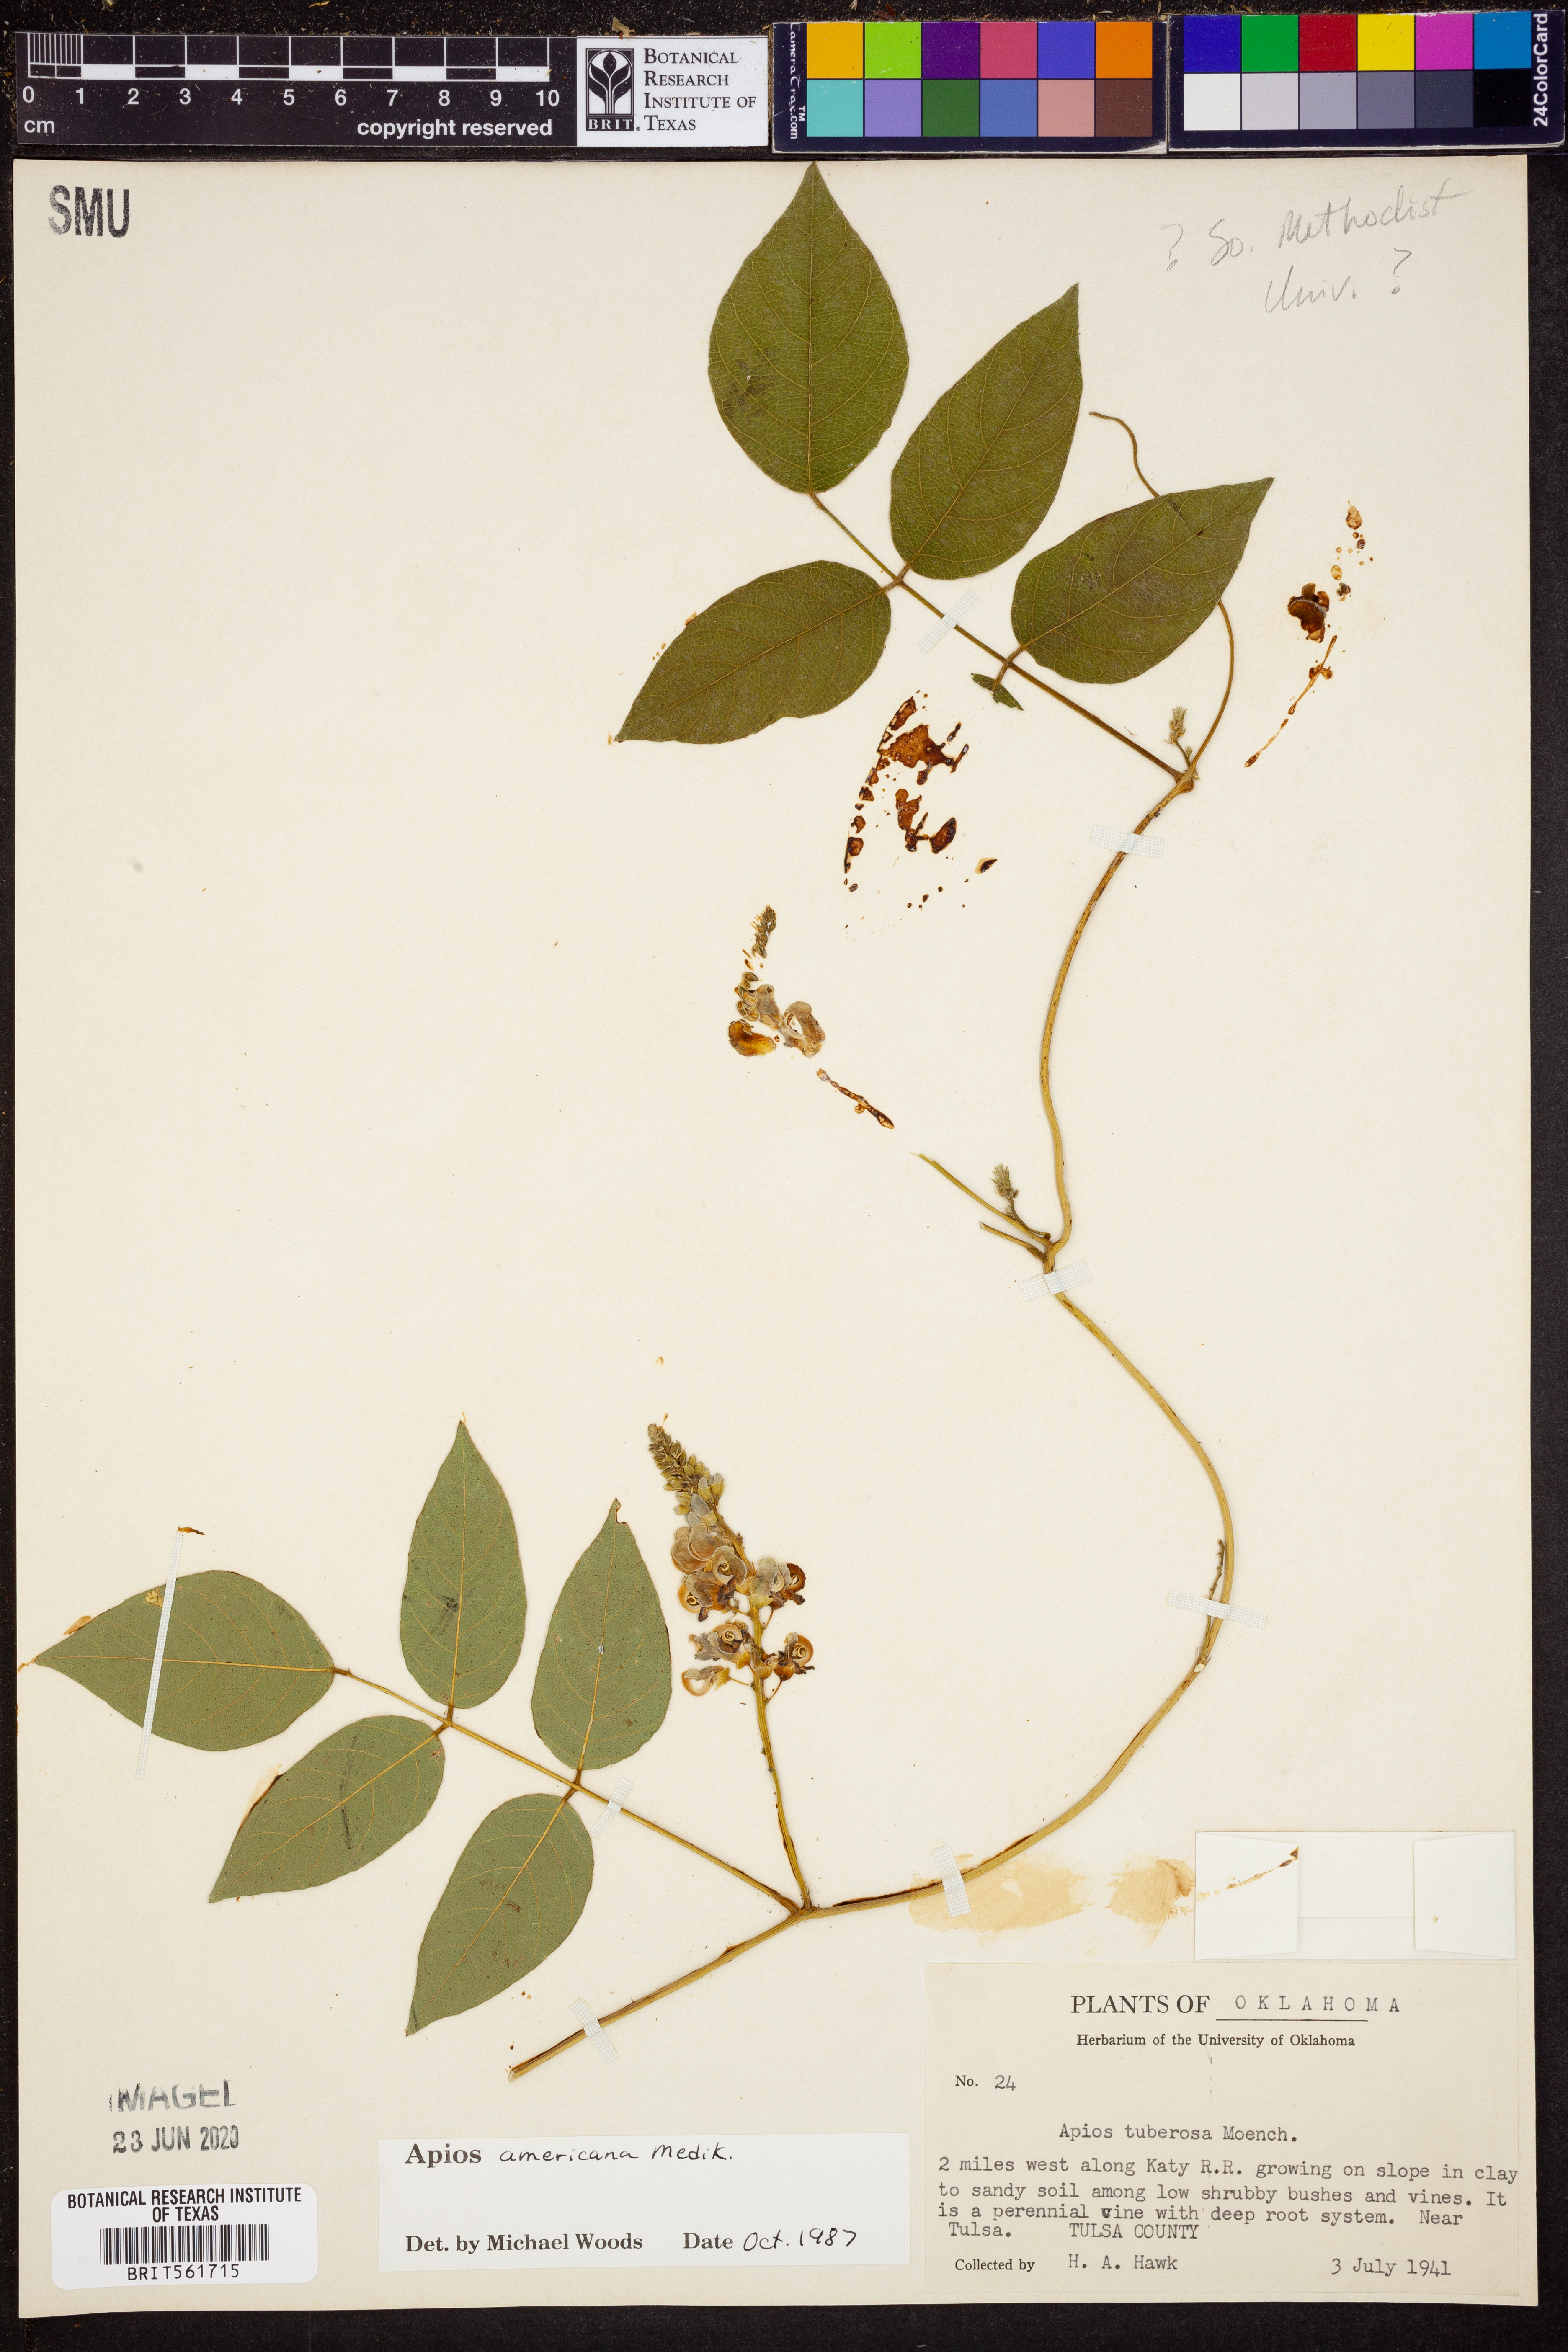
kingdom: Plantae
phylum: Tracheophyta
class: Magnoliopsida
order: Fabales
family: Fabaceae
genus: Apios
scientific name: Apios americana
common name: American potato-bean
